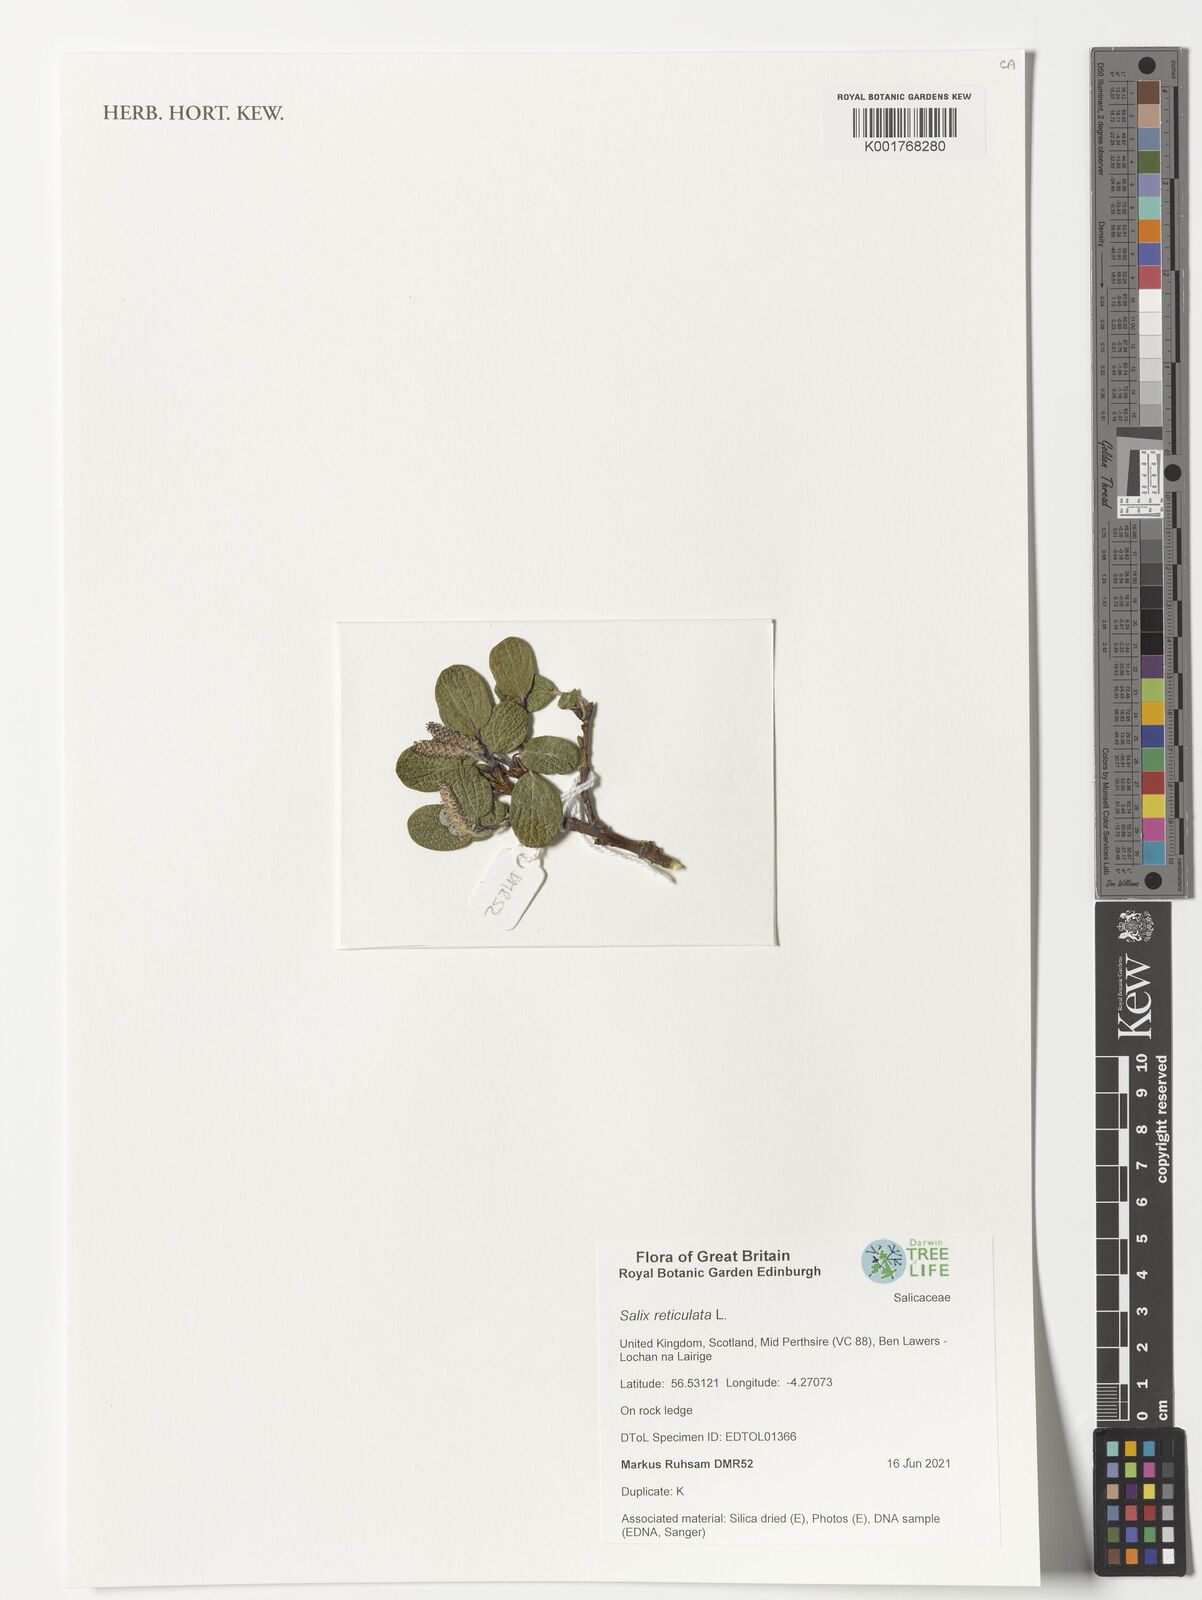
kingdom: Plantae
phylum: Tracheophyta
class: Magnoliopsida
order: Malpighiales
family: Salicaceae
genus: Salix
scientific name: Salix reticulata
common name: Net-leaved willow
